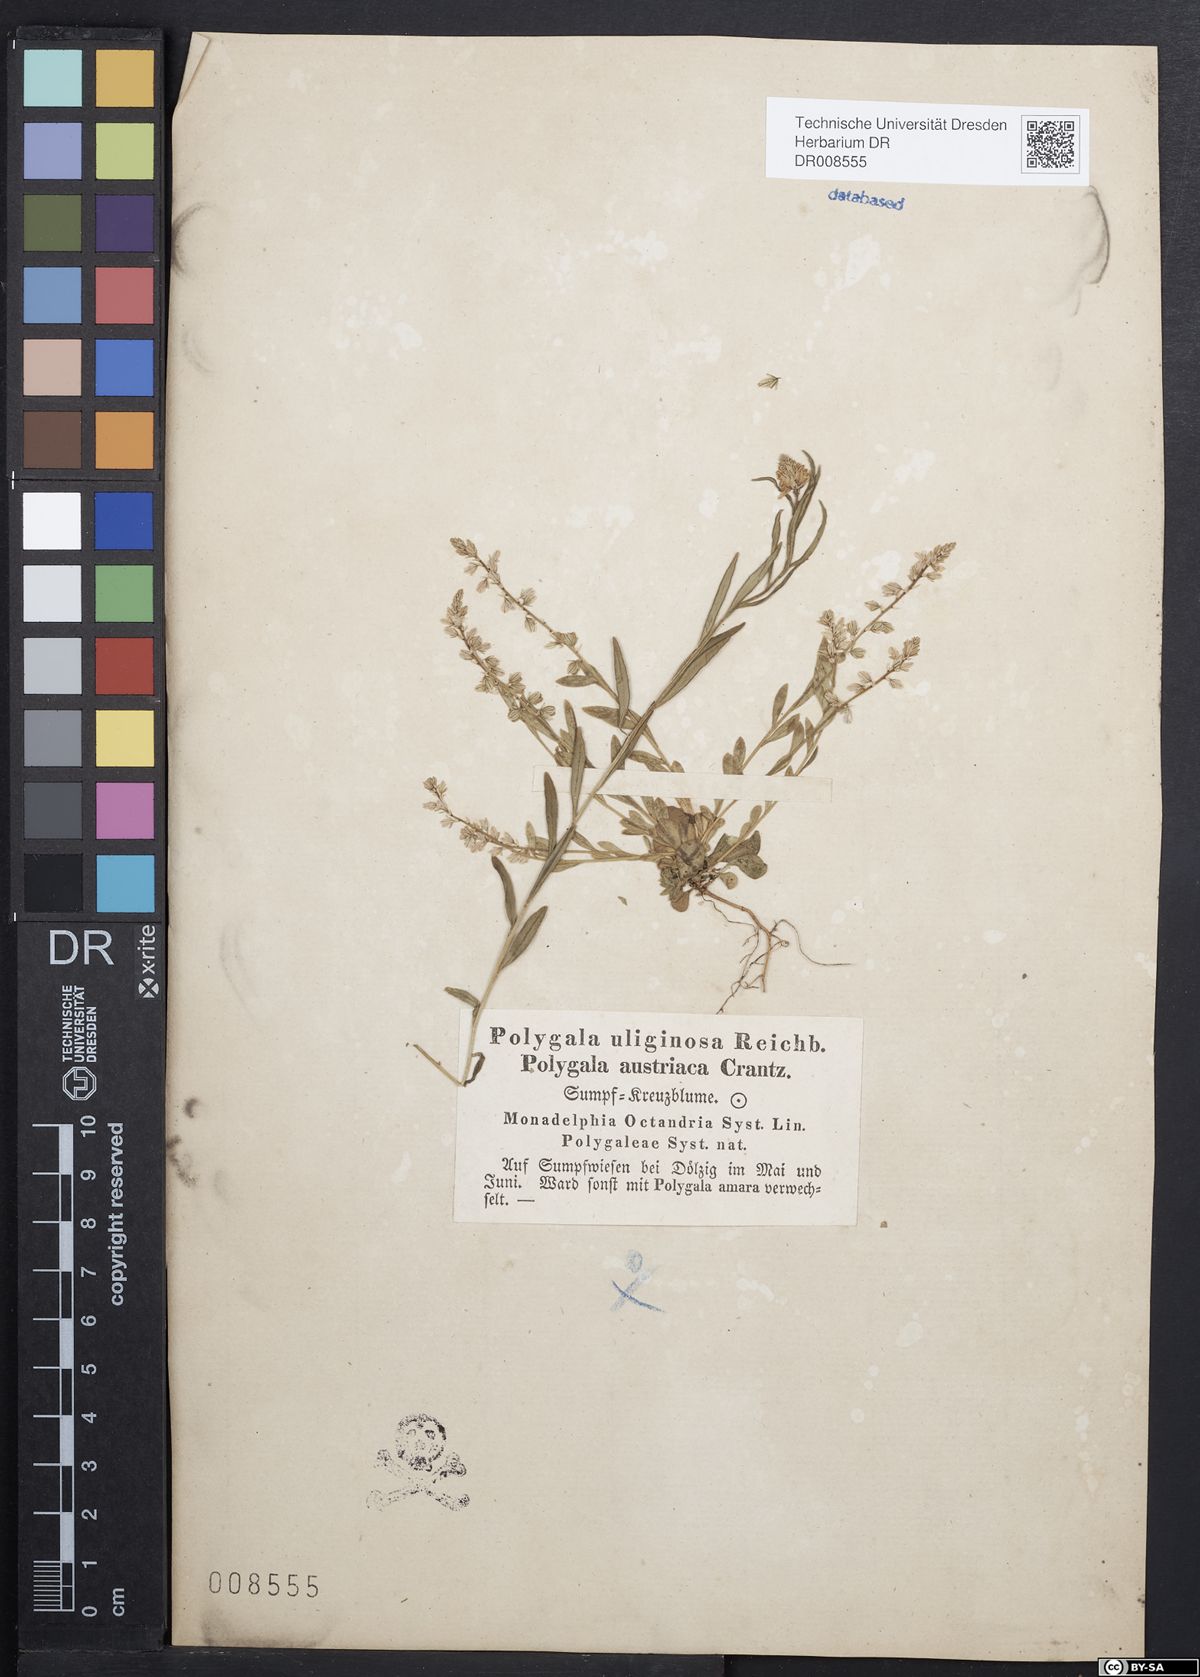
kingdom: Plantae
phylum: Tracheophyta
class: Magnoliopsida
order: Fabales
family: Polygalaceae
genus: Polygala
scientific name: Polygala amarella
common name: Dwarf milkwort
